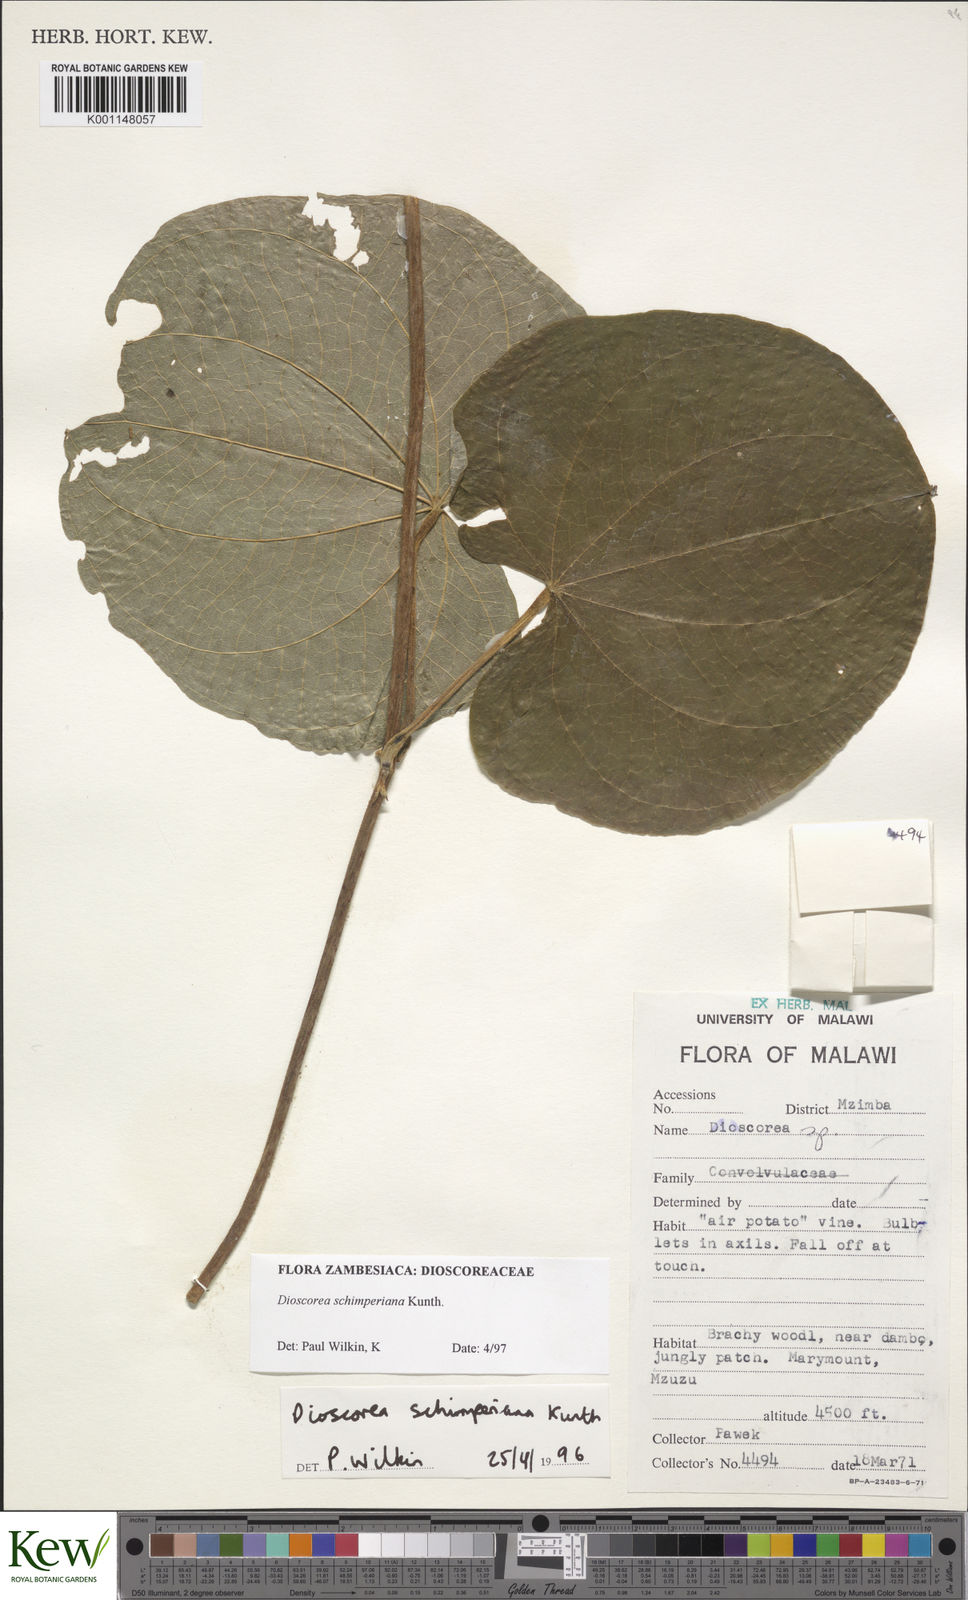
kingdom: Plantae
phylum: Tracheophyta
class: Liliopsida
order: Dioscoreales
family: Dioscoreaceae
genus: Dioscorea
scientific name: Dioscorea schimperiana
